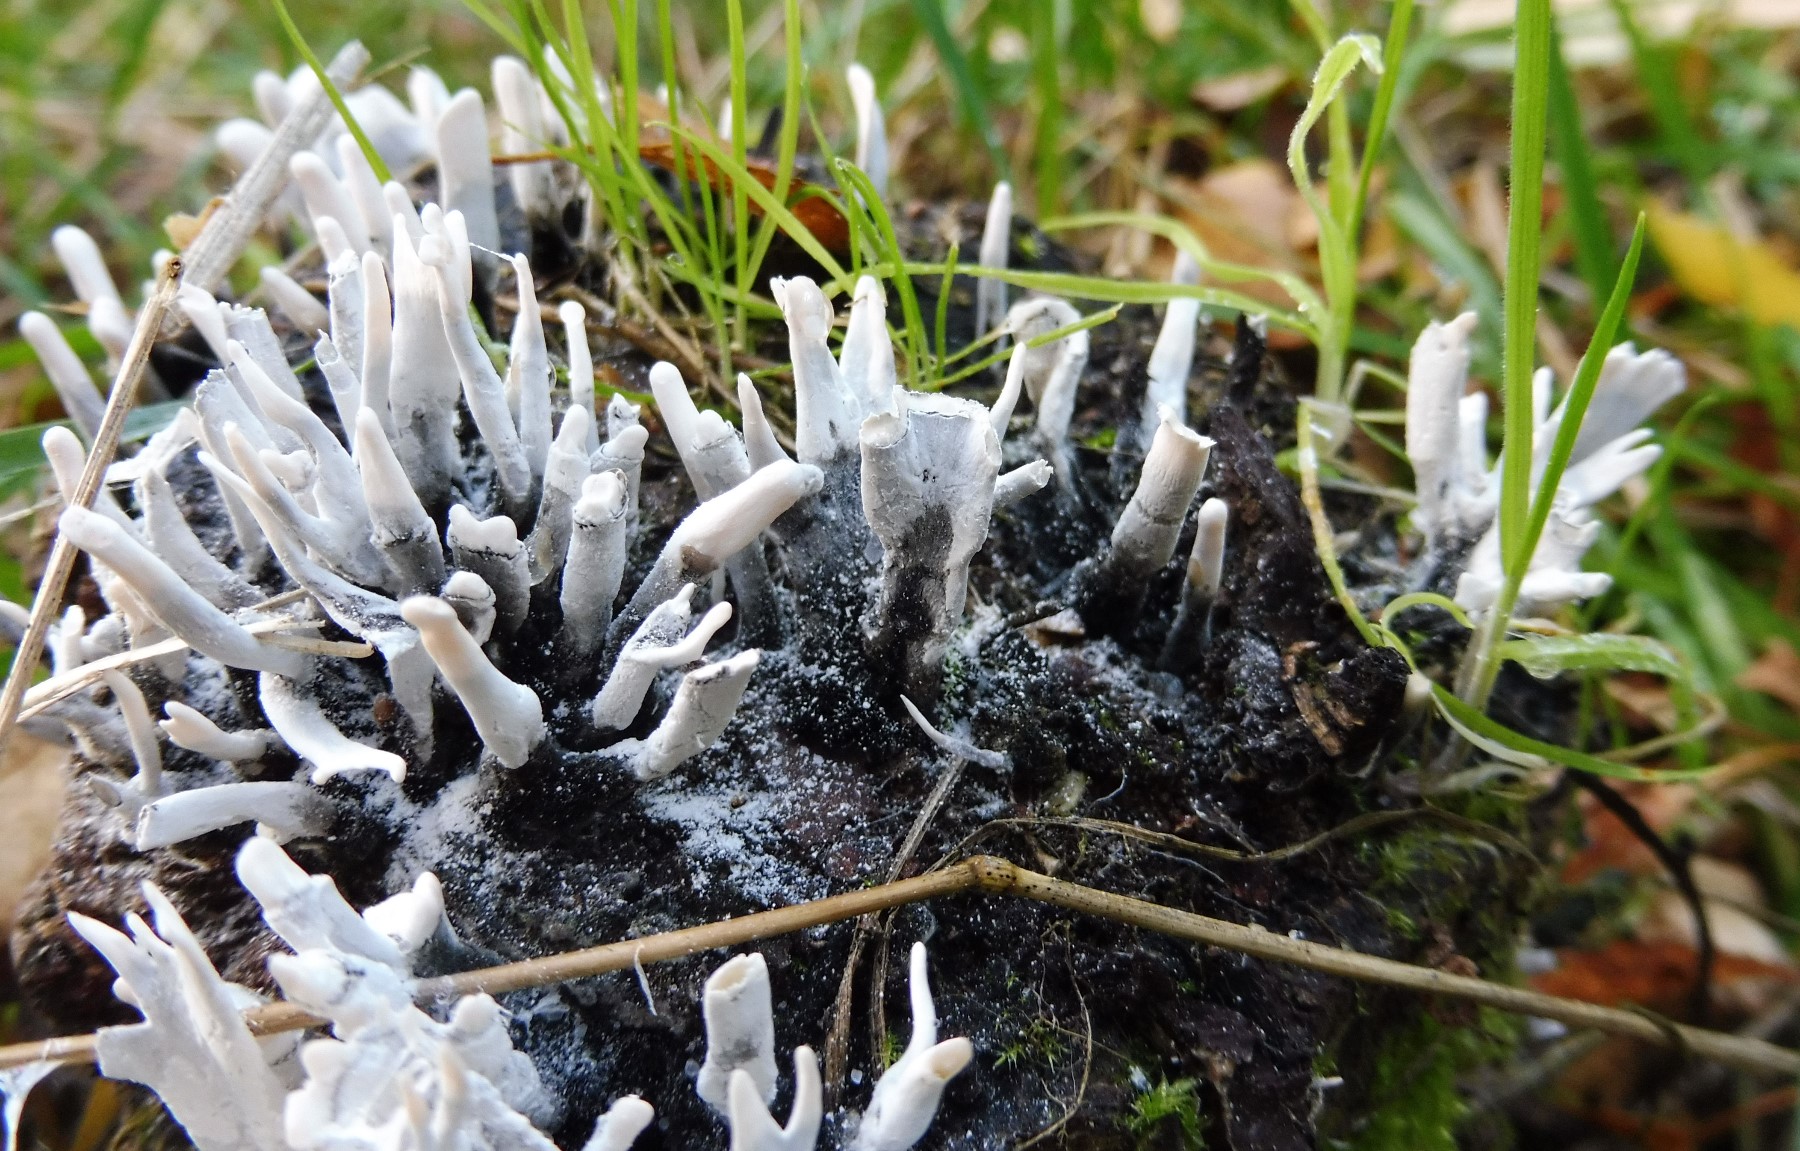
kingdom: Fungi
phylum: Ascomycota
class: Sordariomycetes
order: Xylariales
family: Xylariaceae
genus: Xylaria
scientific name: Xylaria hypoxylon
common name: grenet stødsvamp
